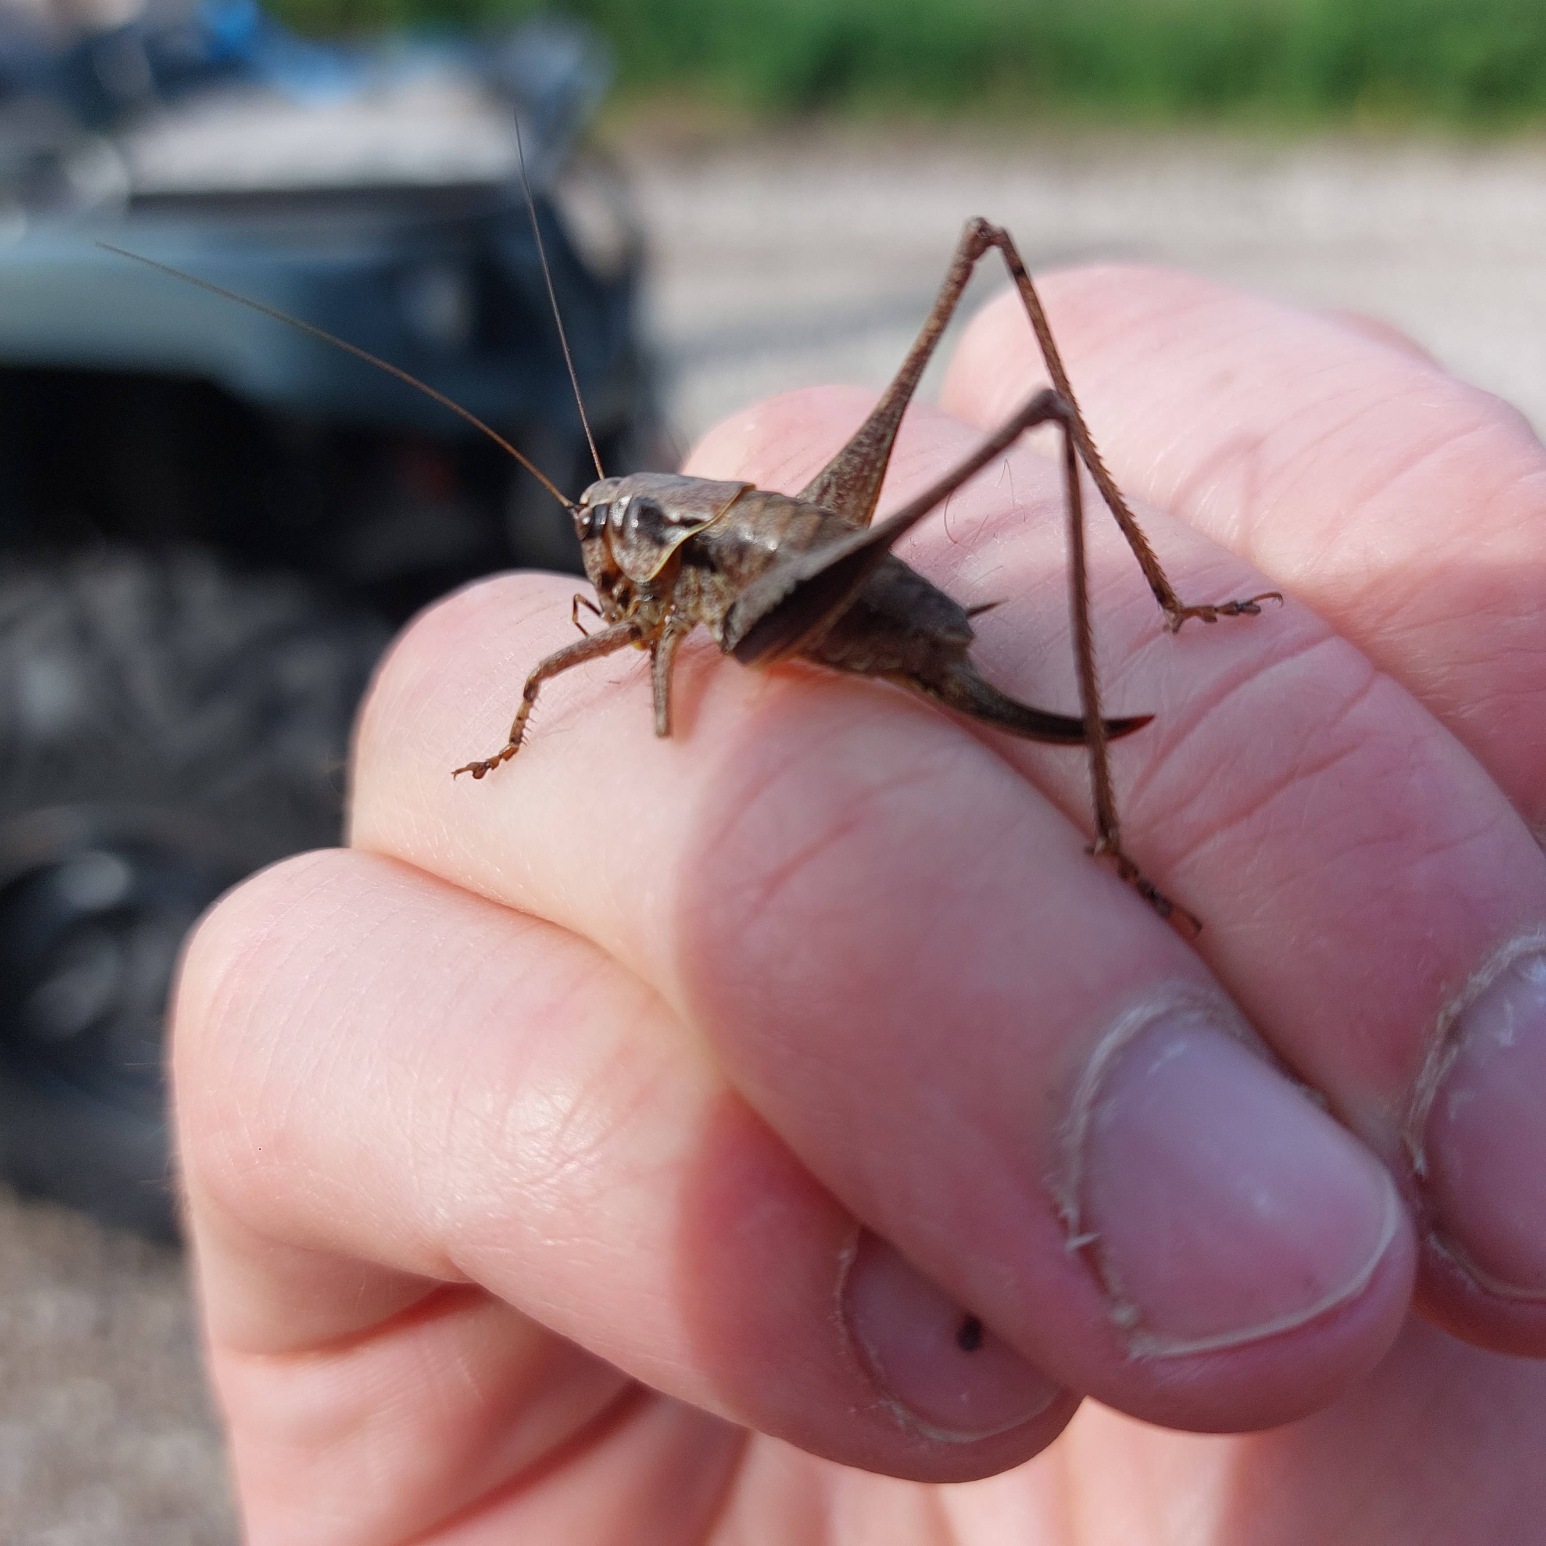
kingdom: Animalia
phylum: Arthropoda
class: Insecta
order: Orthoptera
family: Tettigoniidae
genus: Pholidoptera
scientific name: Pholidoptera griseoaptera
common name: Buskgræshoppe
